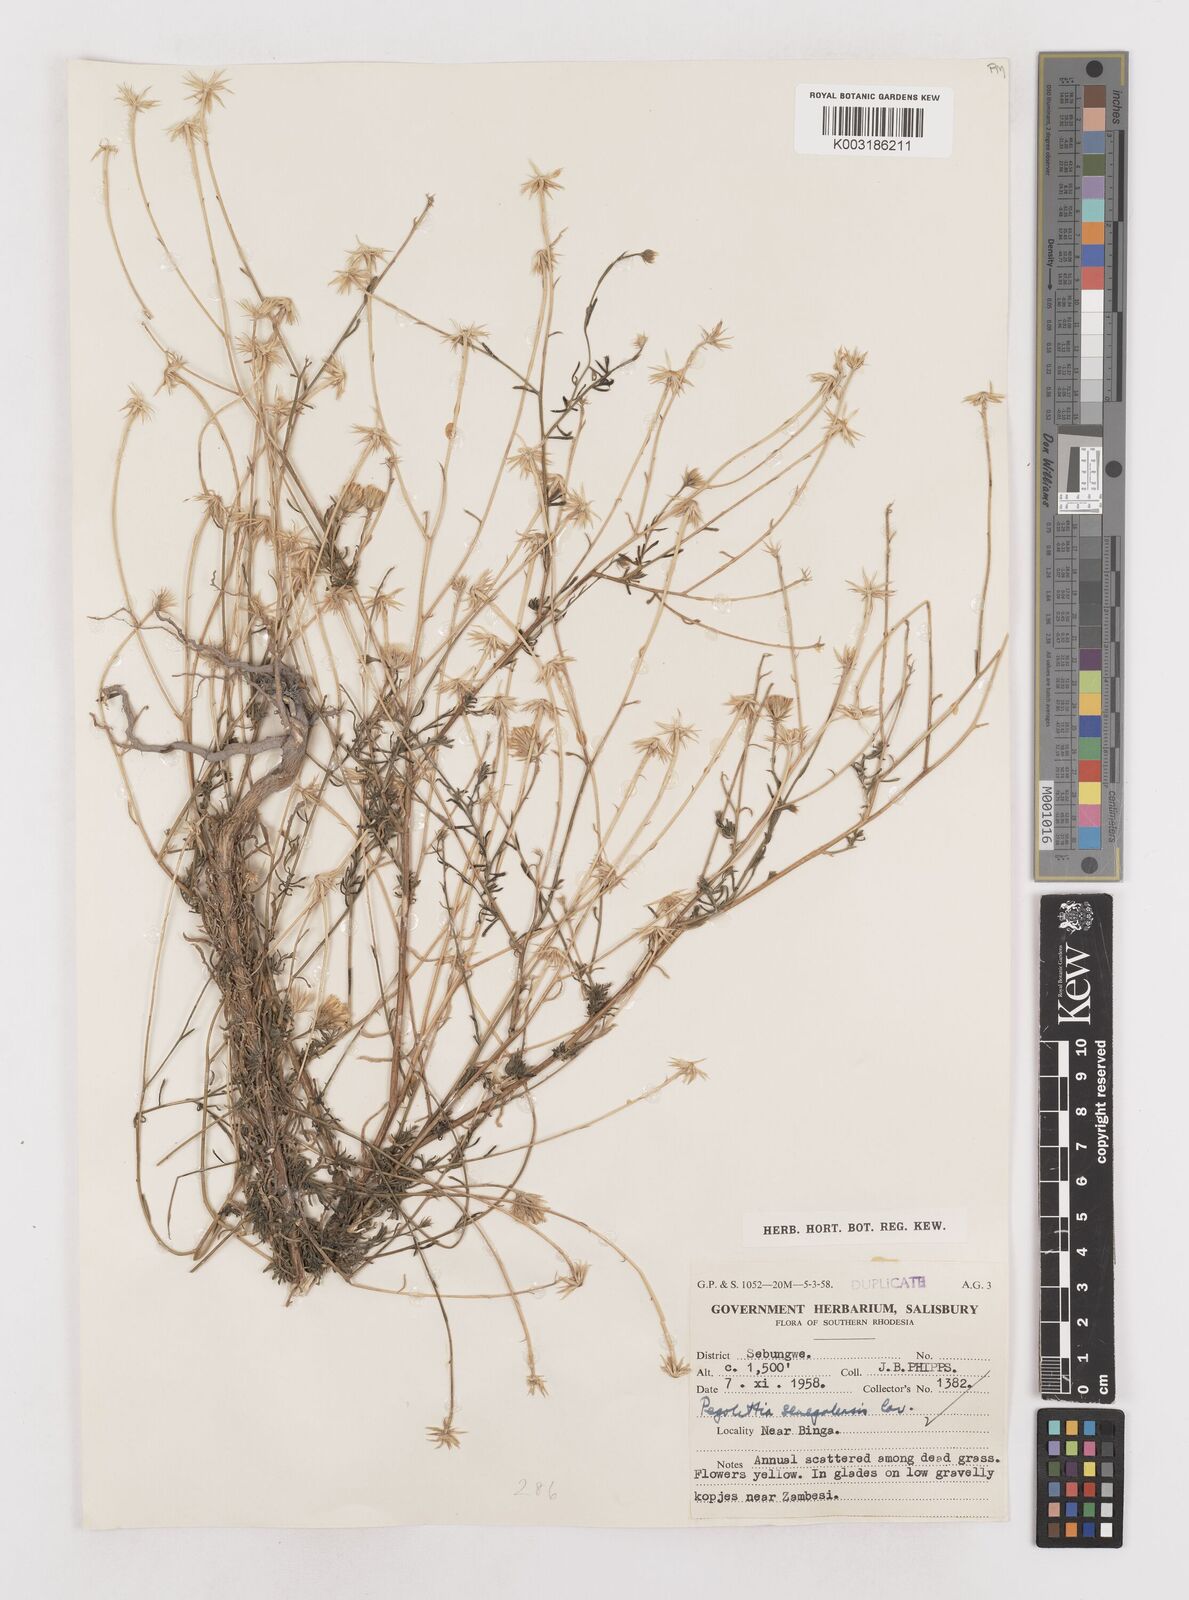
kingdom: Plantae
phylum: Tracheophyta
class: Magnoliopsida
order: Asterales
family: Asteraceae
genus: Pegolettia
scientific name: Pegolettia senegalensis
